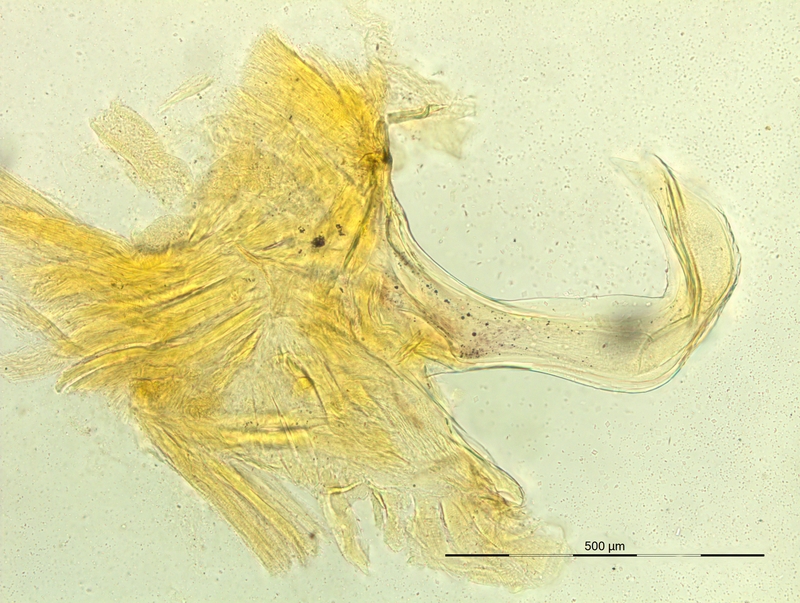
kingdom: Animalia
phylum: Arthropoda
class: Diplopoda
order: Chordeumatida
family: Craspedosomatidae
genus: Pyrgocyphosoma
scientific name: Pyrgocyphosoma oppidicola
